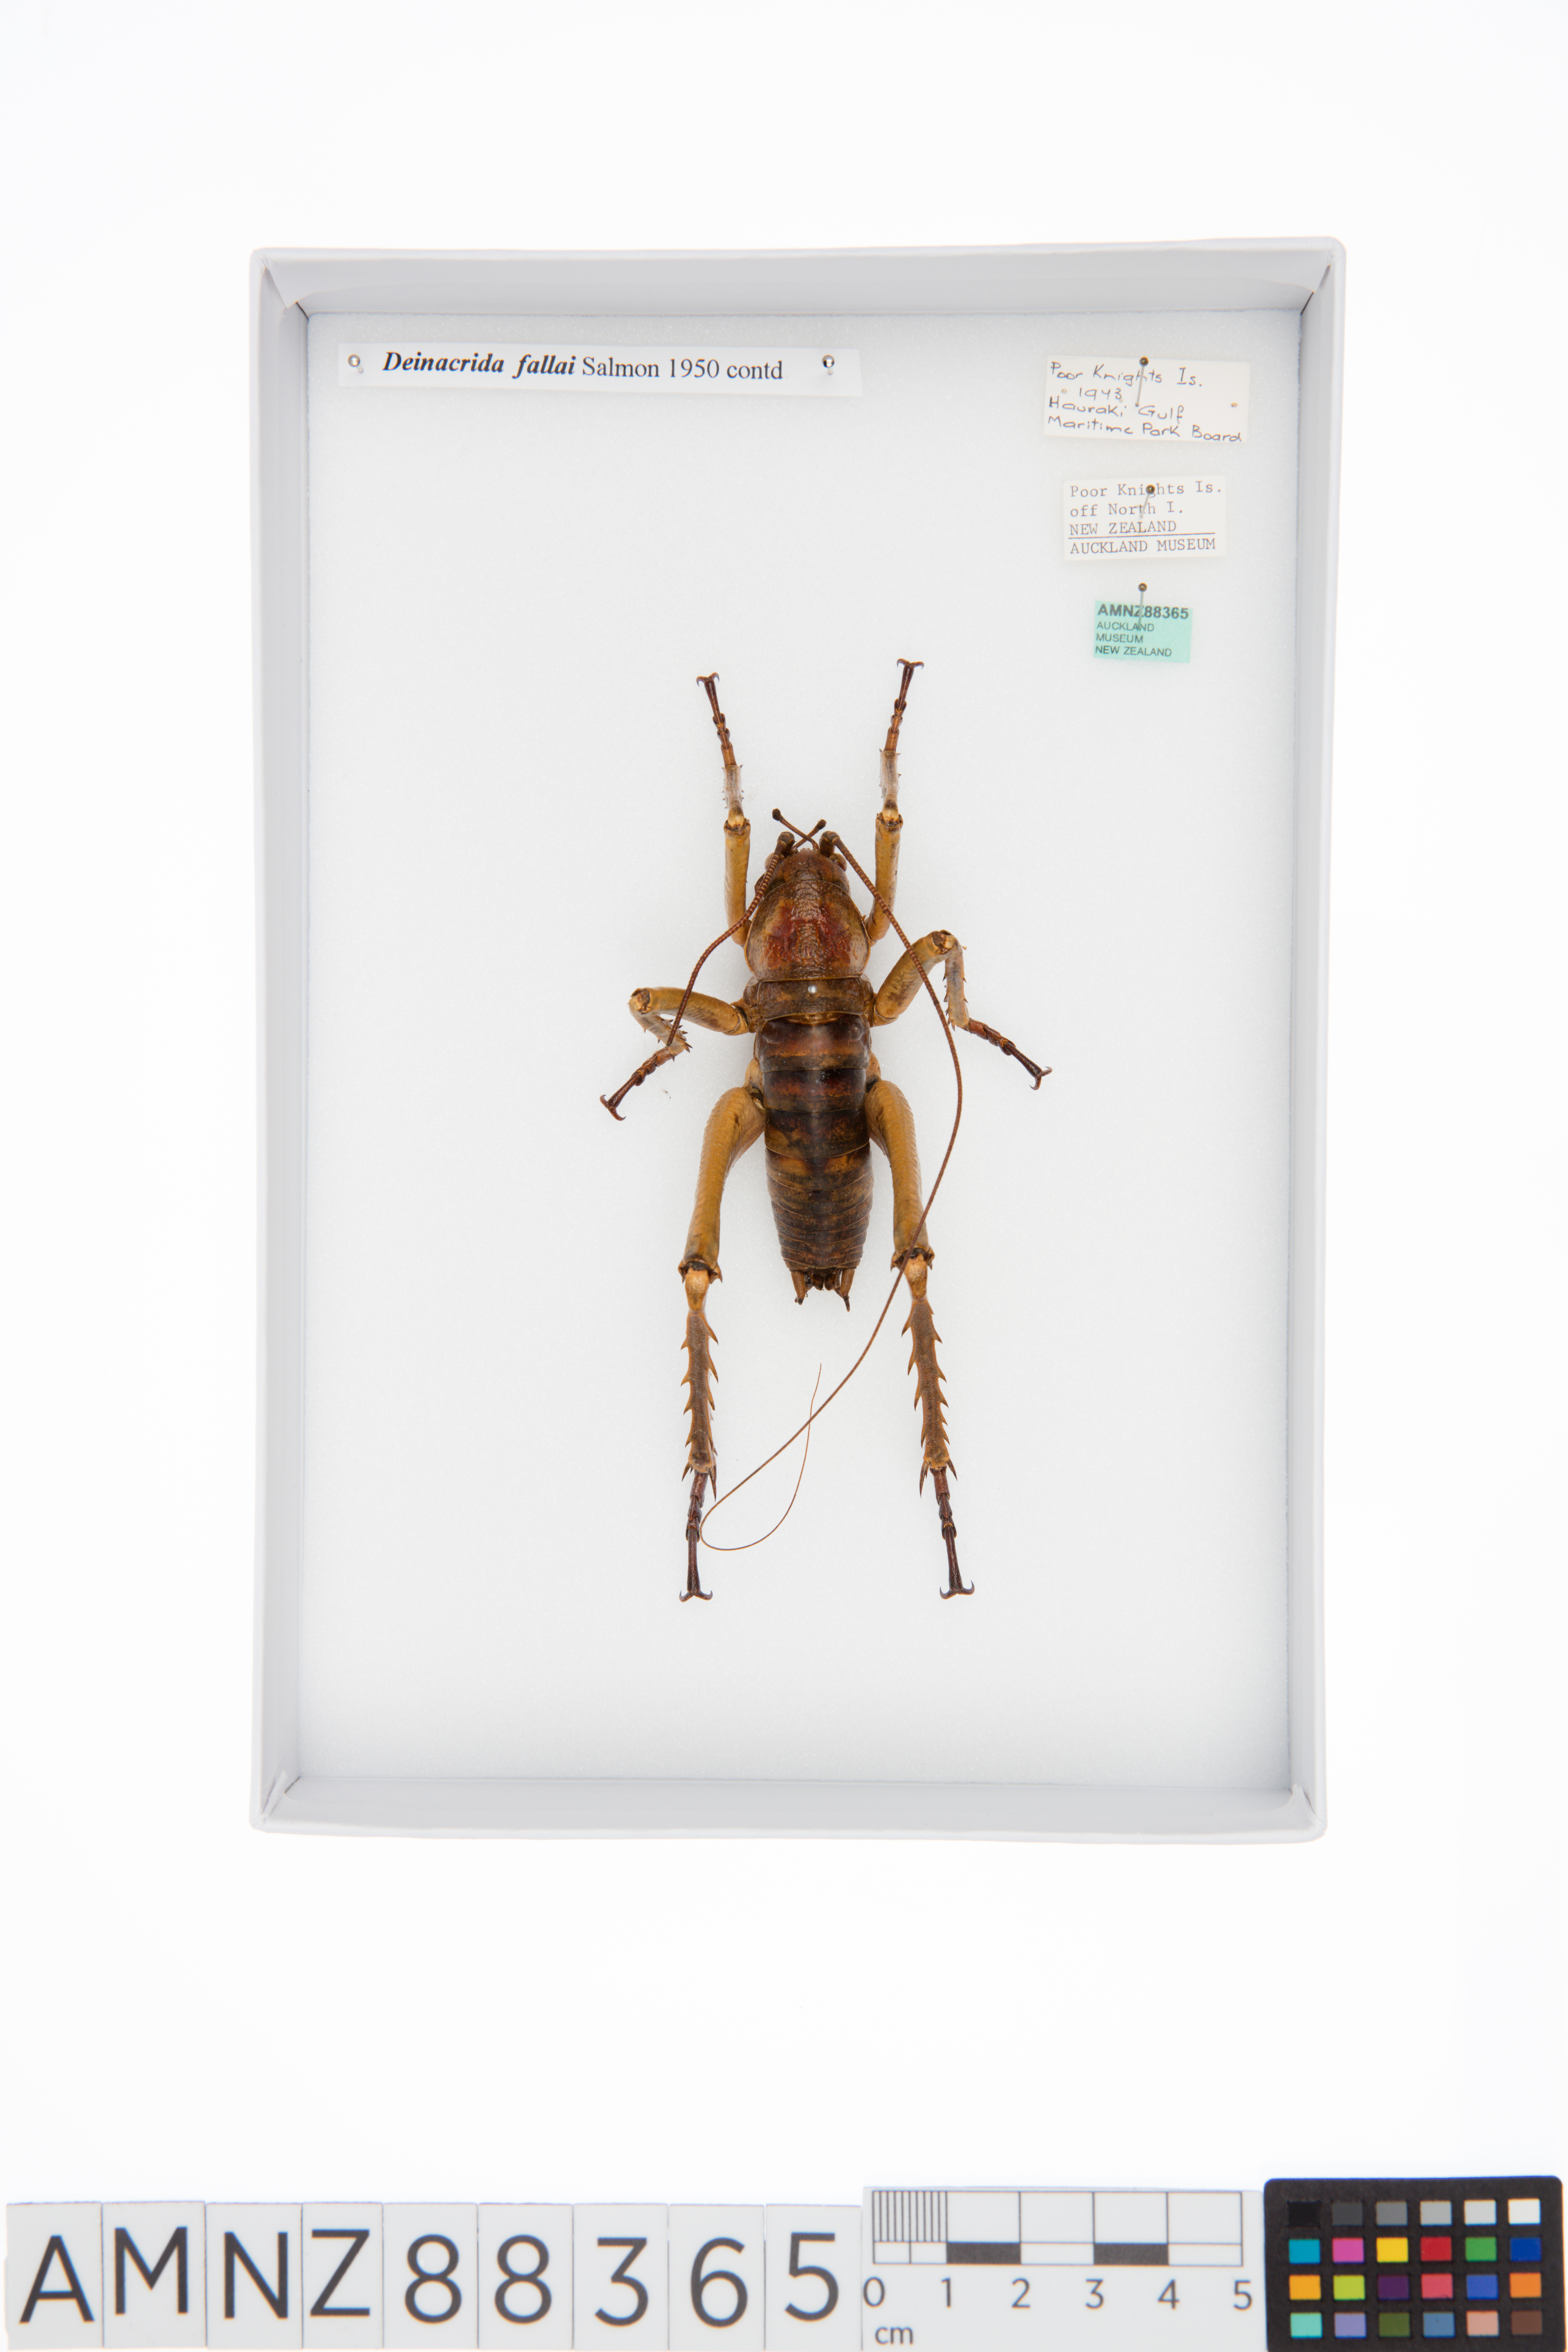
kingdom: Animalia
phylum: Arthropoda
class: Insecta
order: Orthoptera
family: Anostostomatidae
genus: Deinacrida
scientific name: Deinacrida fallai
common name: Poor knights weta
